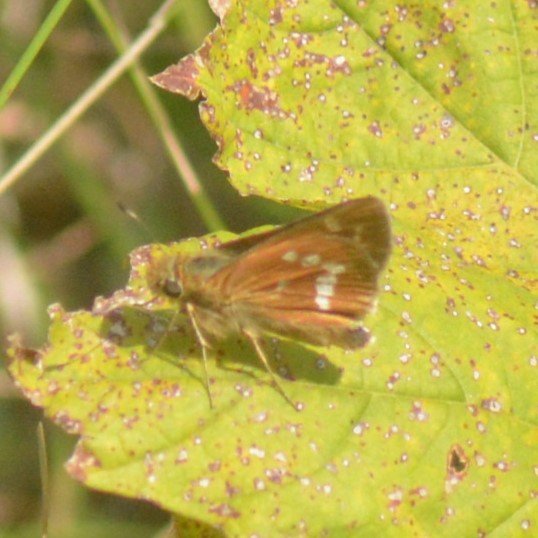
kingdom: Animalia
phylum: Arthropoda
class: Insecta
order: Lepidoptera
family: Hesperiidae
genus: Hesperia
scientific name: Hesperia leonardus
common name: Leonard's Skipper
